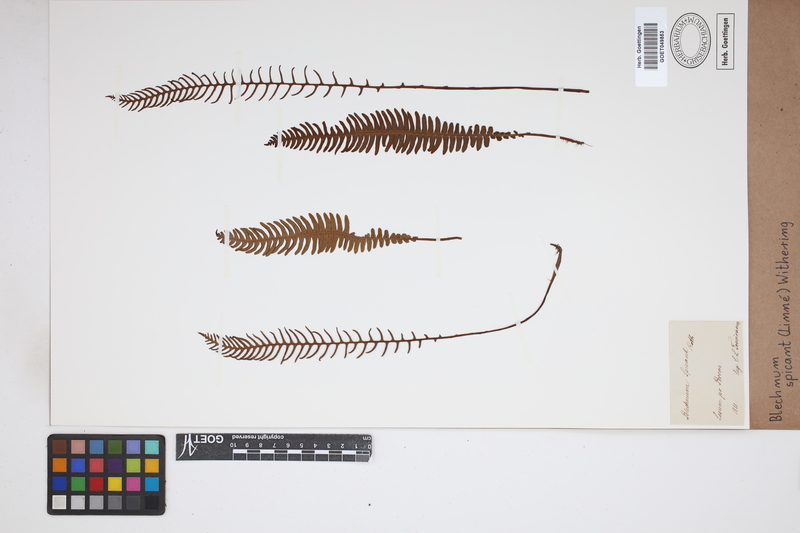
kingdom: Plantae
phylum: Tracheophyta
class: Polypodiopsida
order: Polypodiales
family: Blechnaceae
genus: Struthiopteris
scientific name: Struthiopteris spicant
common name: Deer fern
